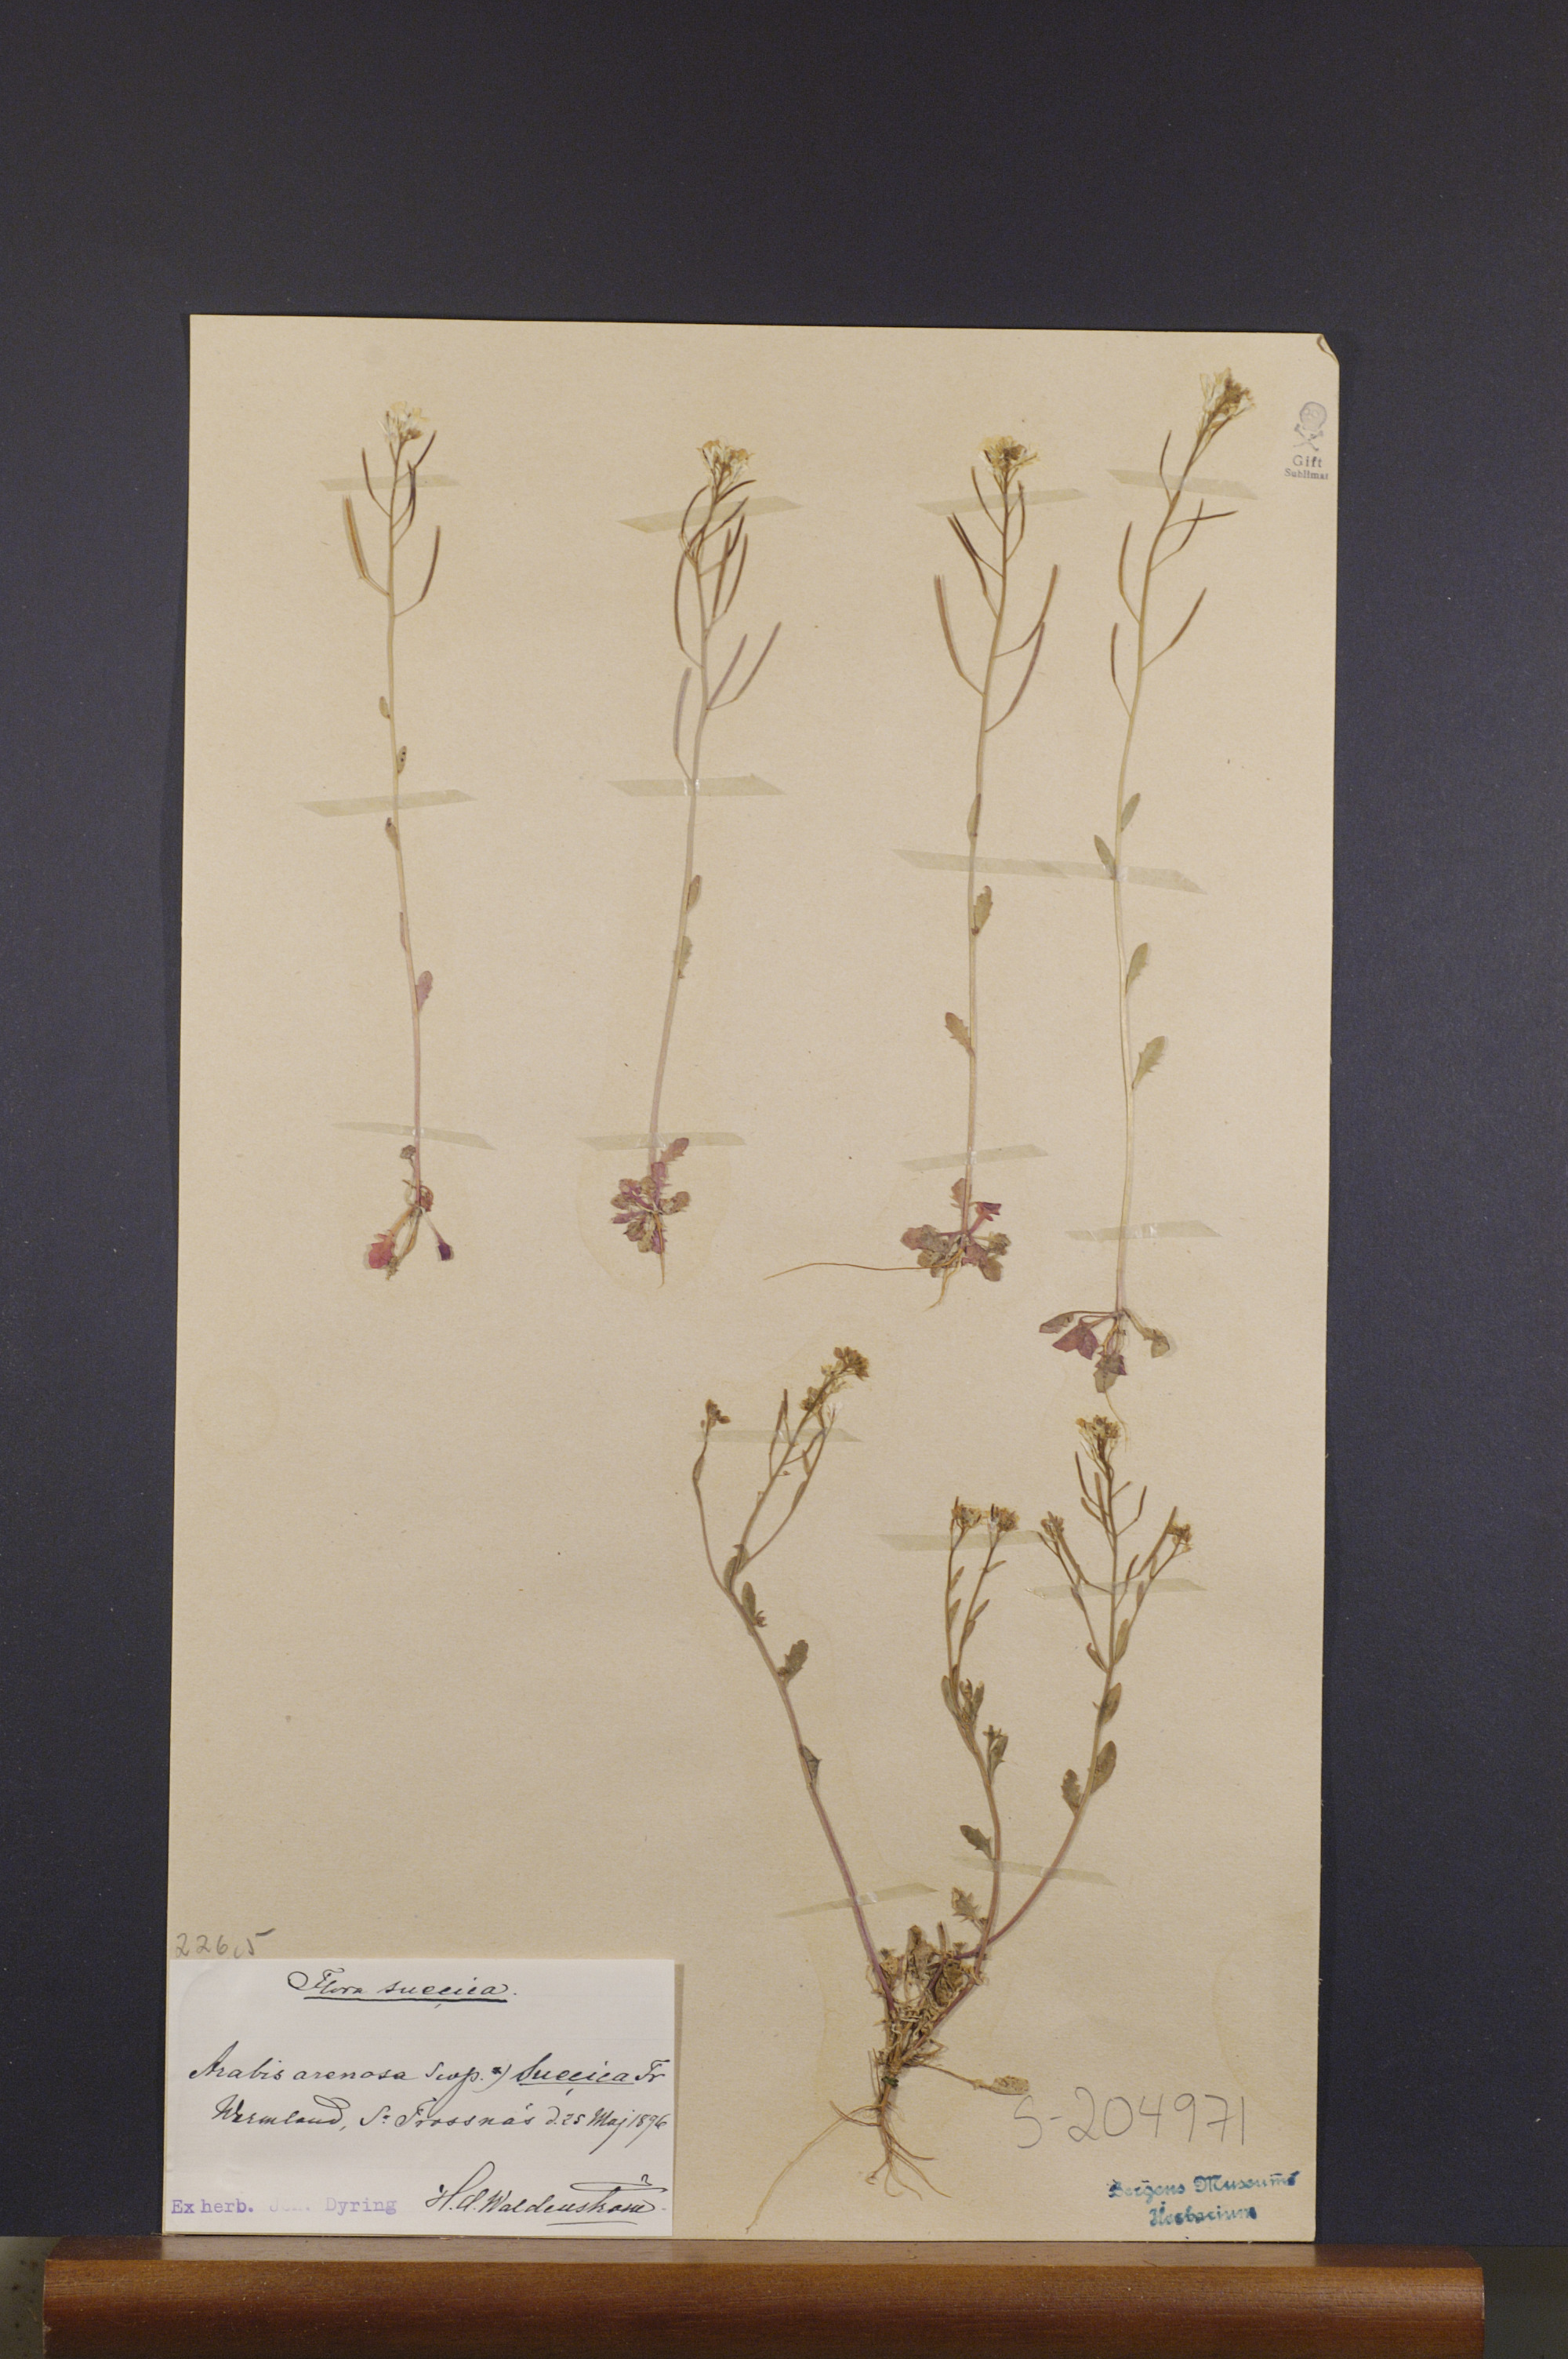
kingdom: Plantae
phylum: Tracheophyta
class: Magnoliopsida
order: Brassicales
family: Brassicaceae
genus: Arabidopsis
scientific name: Arabidopsis suecica
